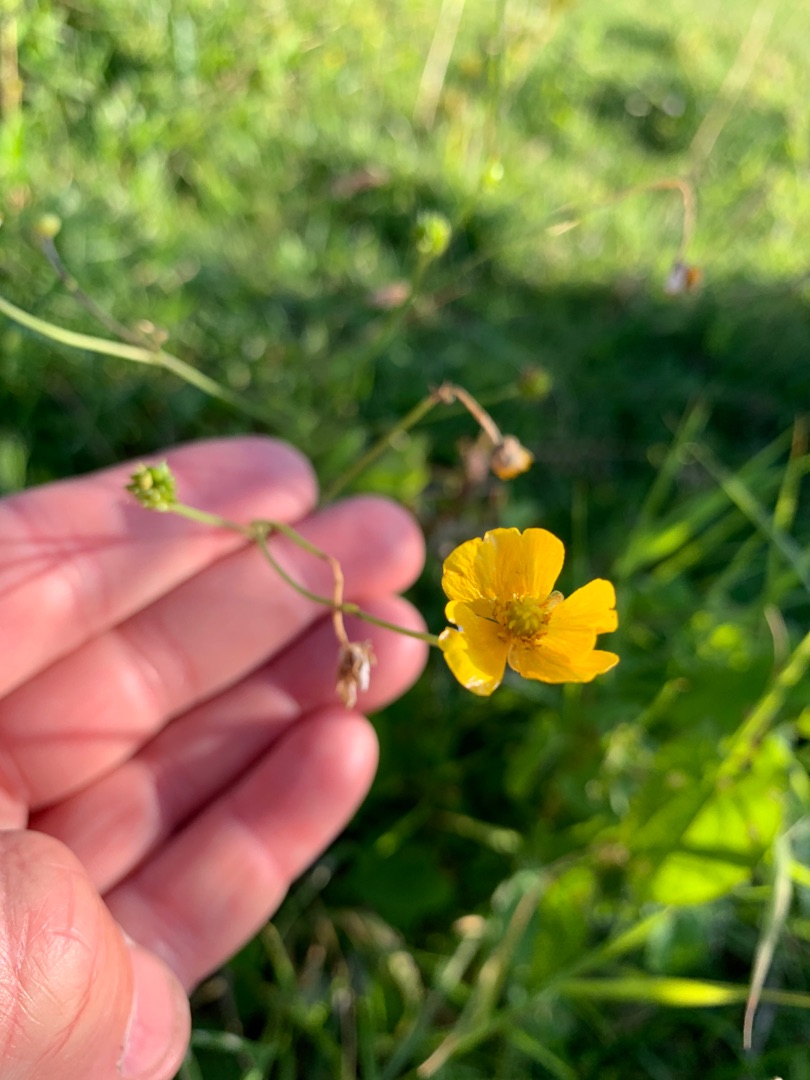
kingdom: Plantae
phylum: Tracheophyta
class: Magnoliopsida
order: Ranunculales
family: Ranunculaceae
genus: Ranunculus
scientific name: Ranunculus acris
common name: Bidende ranunkel
